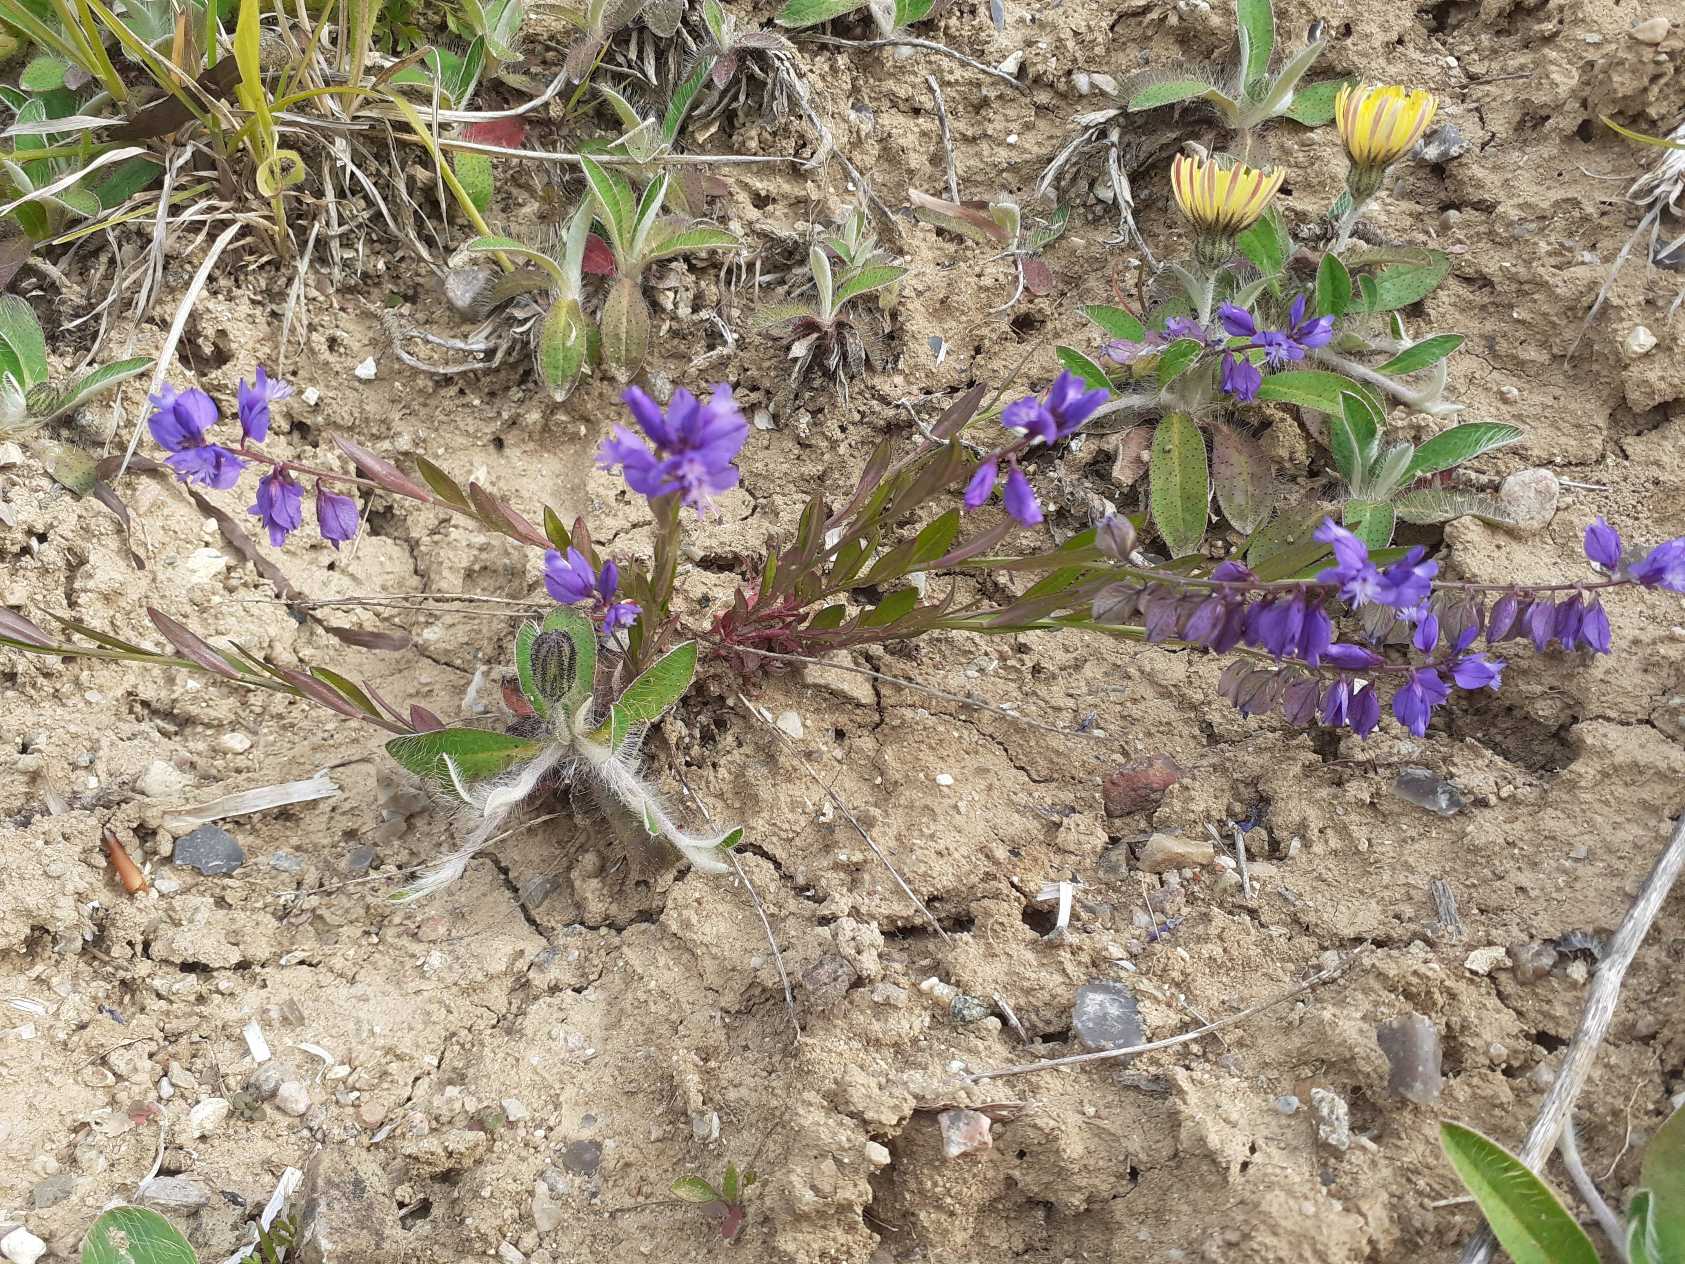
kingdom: Plantae
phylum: Tracheophyta
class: Magnoliopsida
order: Fabales
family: Polygalaceae
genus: Polygala
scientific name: Polygala vulgaris
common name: Almindelig mælkeurt
